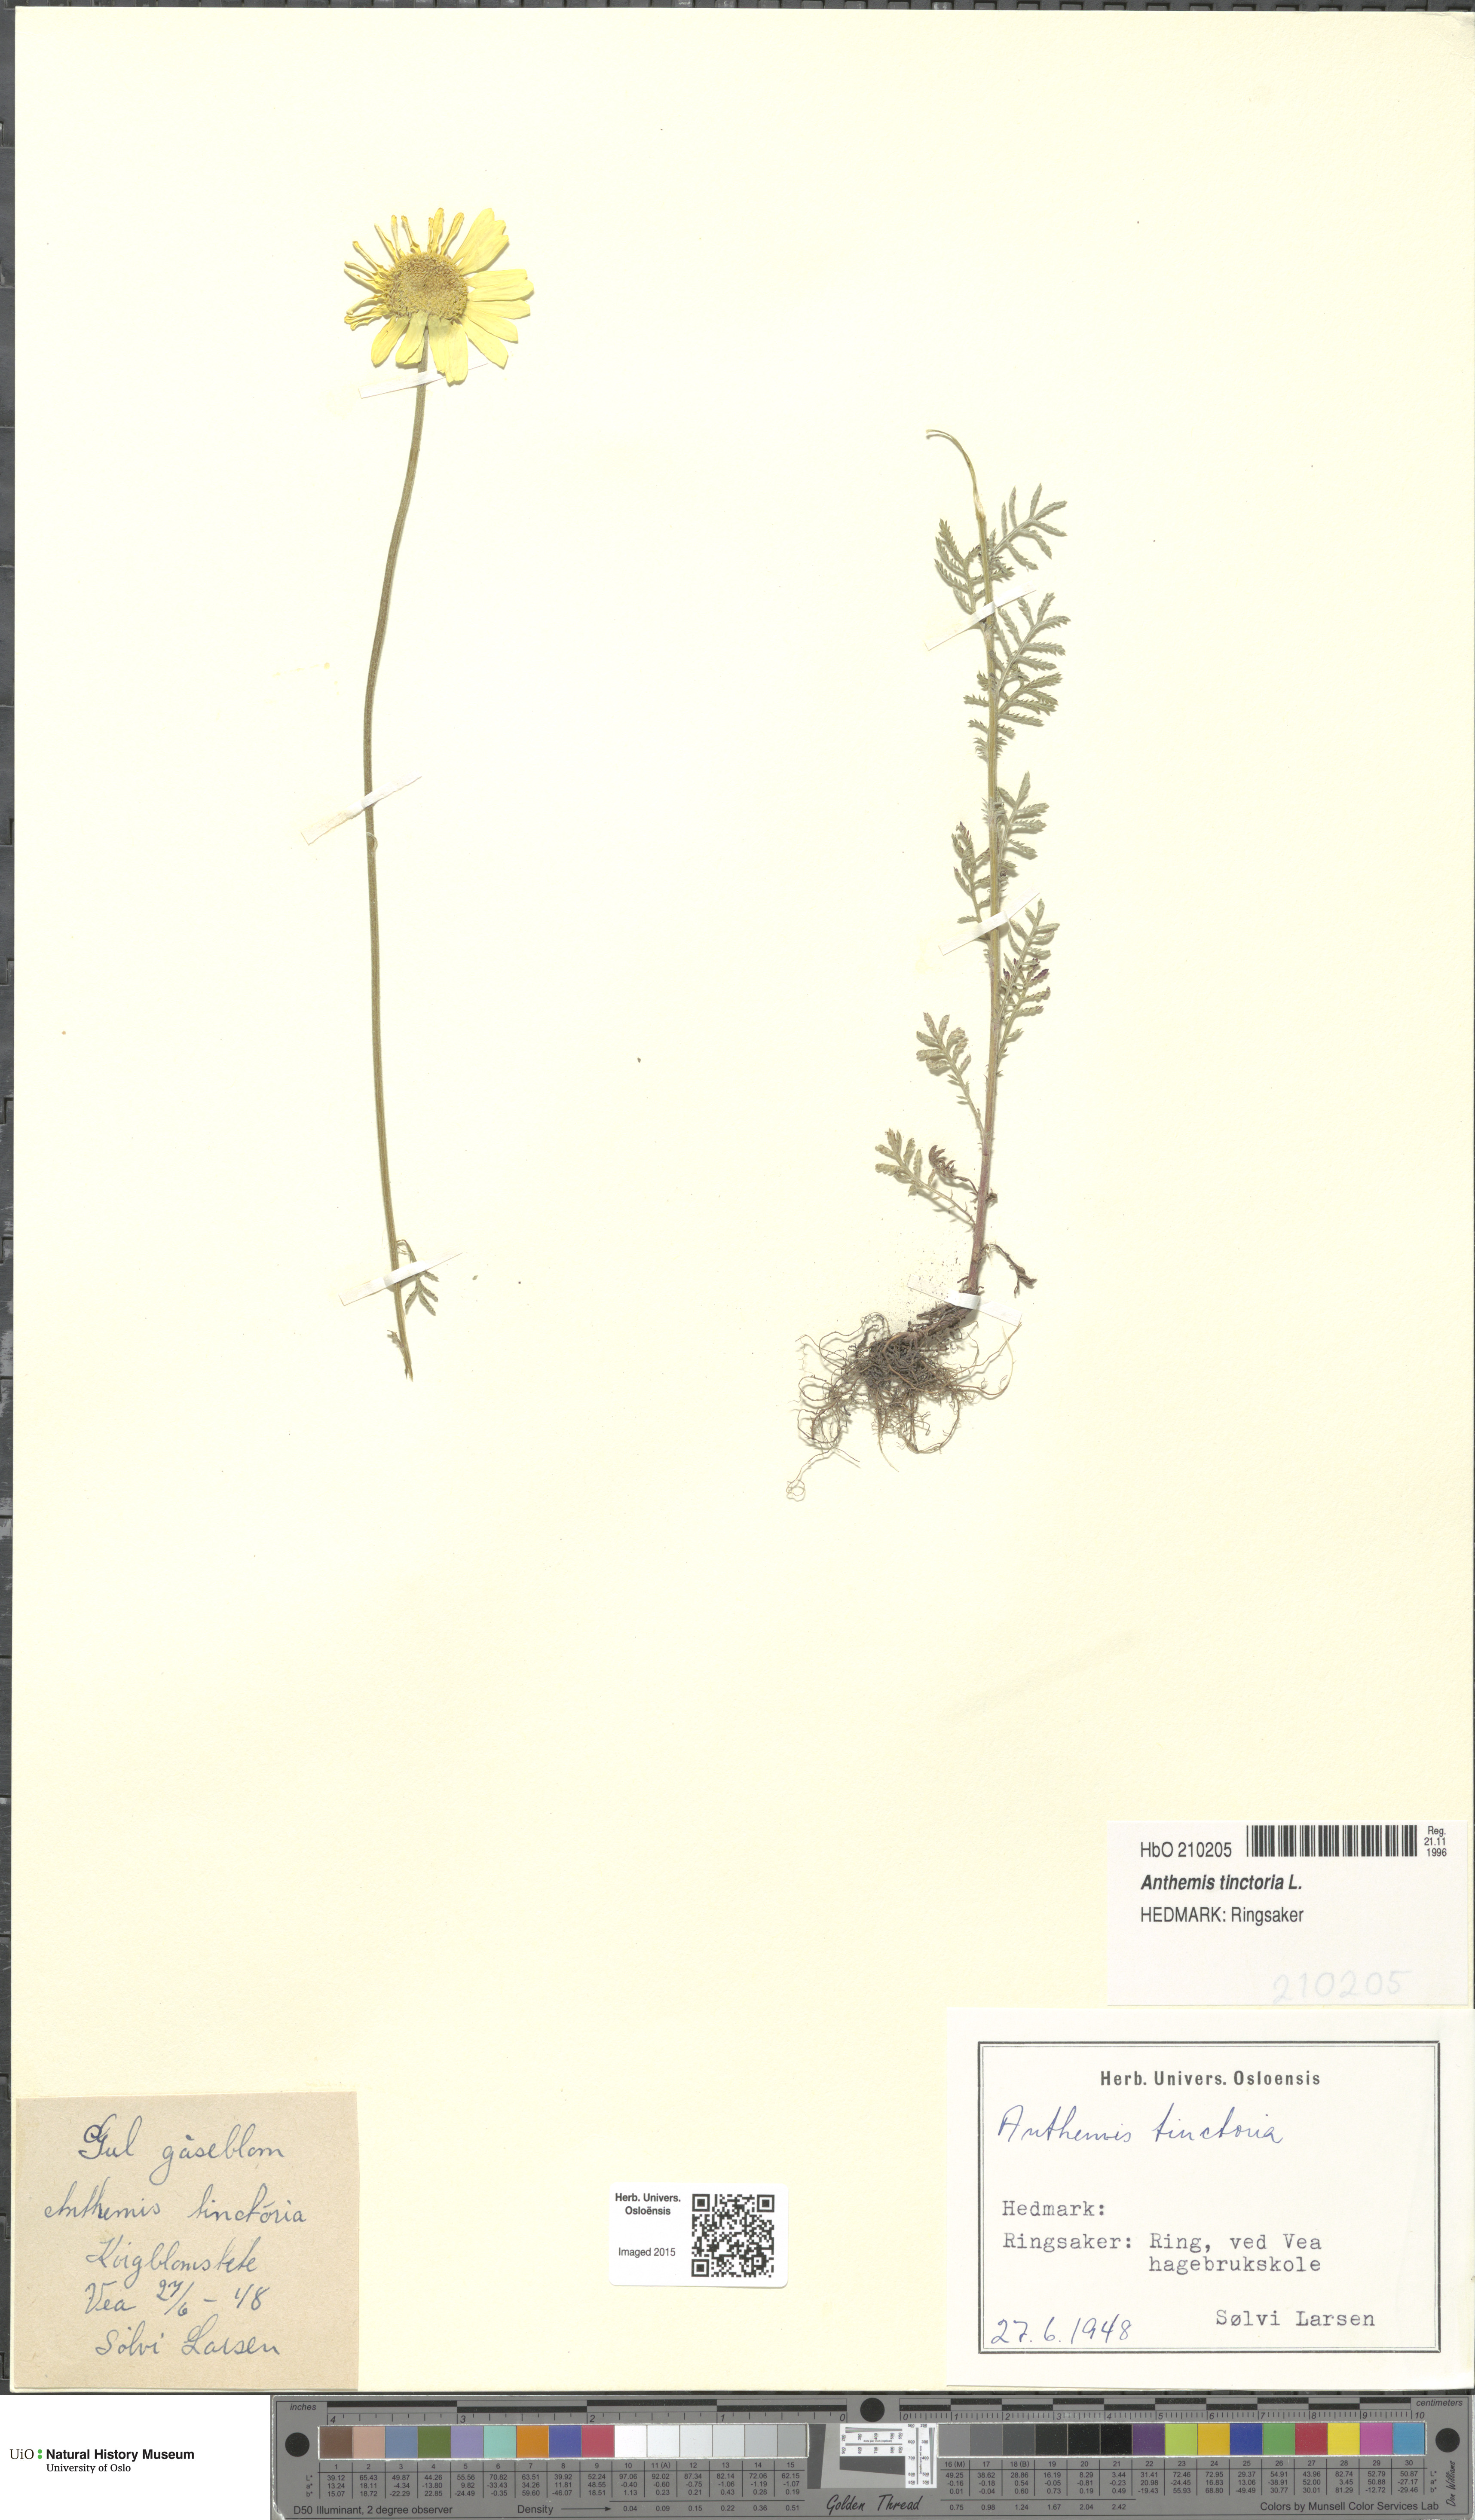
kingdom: Plantae
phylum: Tracheophyta
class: Magnoliopsida
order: Asterales
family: Asteraceae
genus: Cota
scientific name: Cota tinctoria
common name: Golden chamomile
